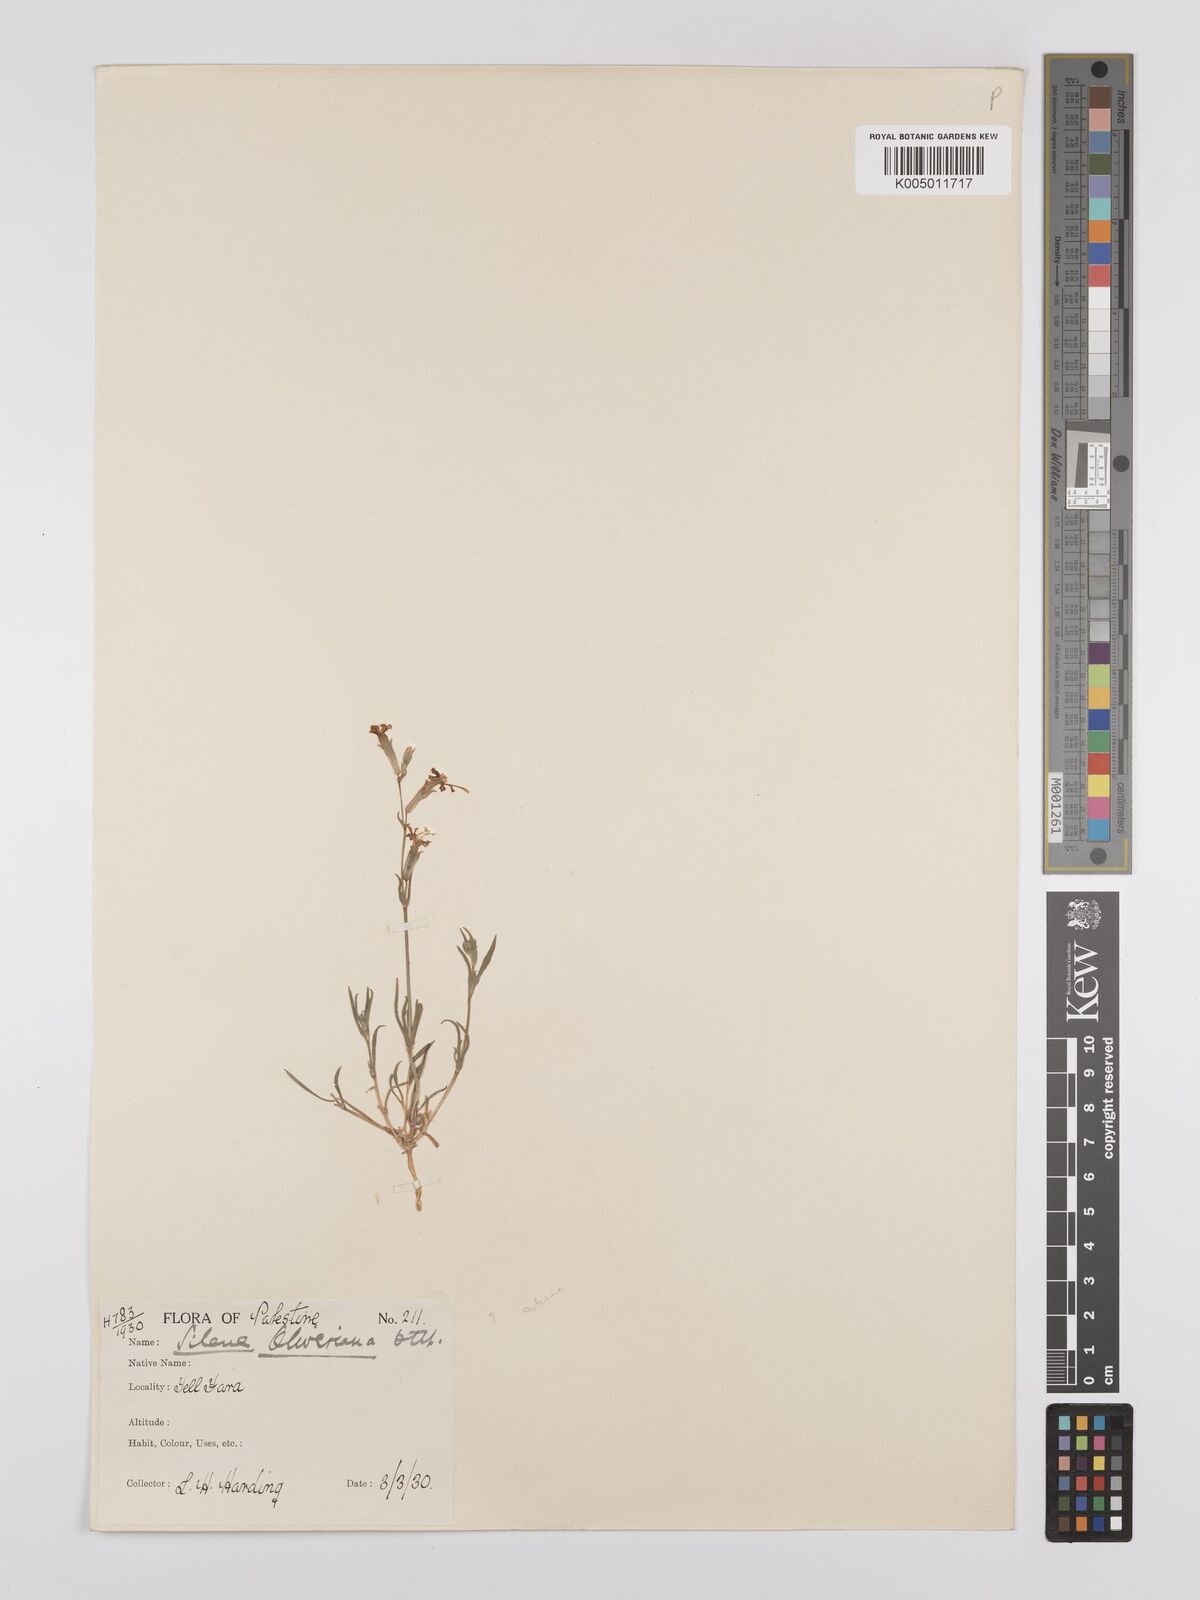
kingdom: Plantae
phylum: Tracheophyta
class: Magnoliopsida
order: Caryophyllales
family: Caryophyllaceae
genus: Silene
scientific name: Silene oliveriana
